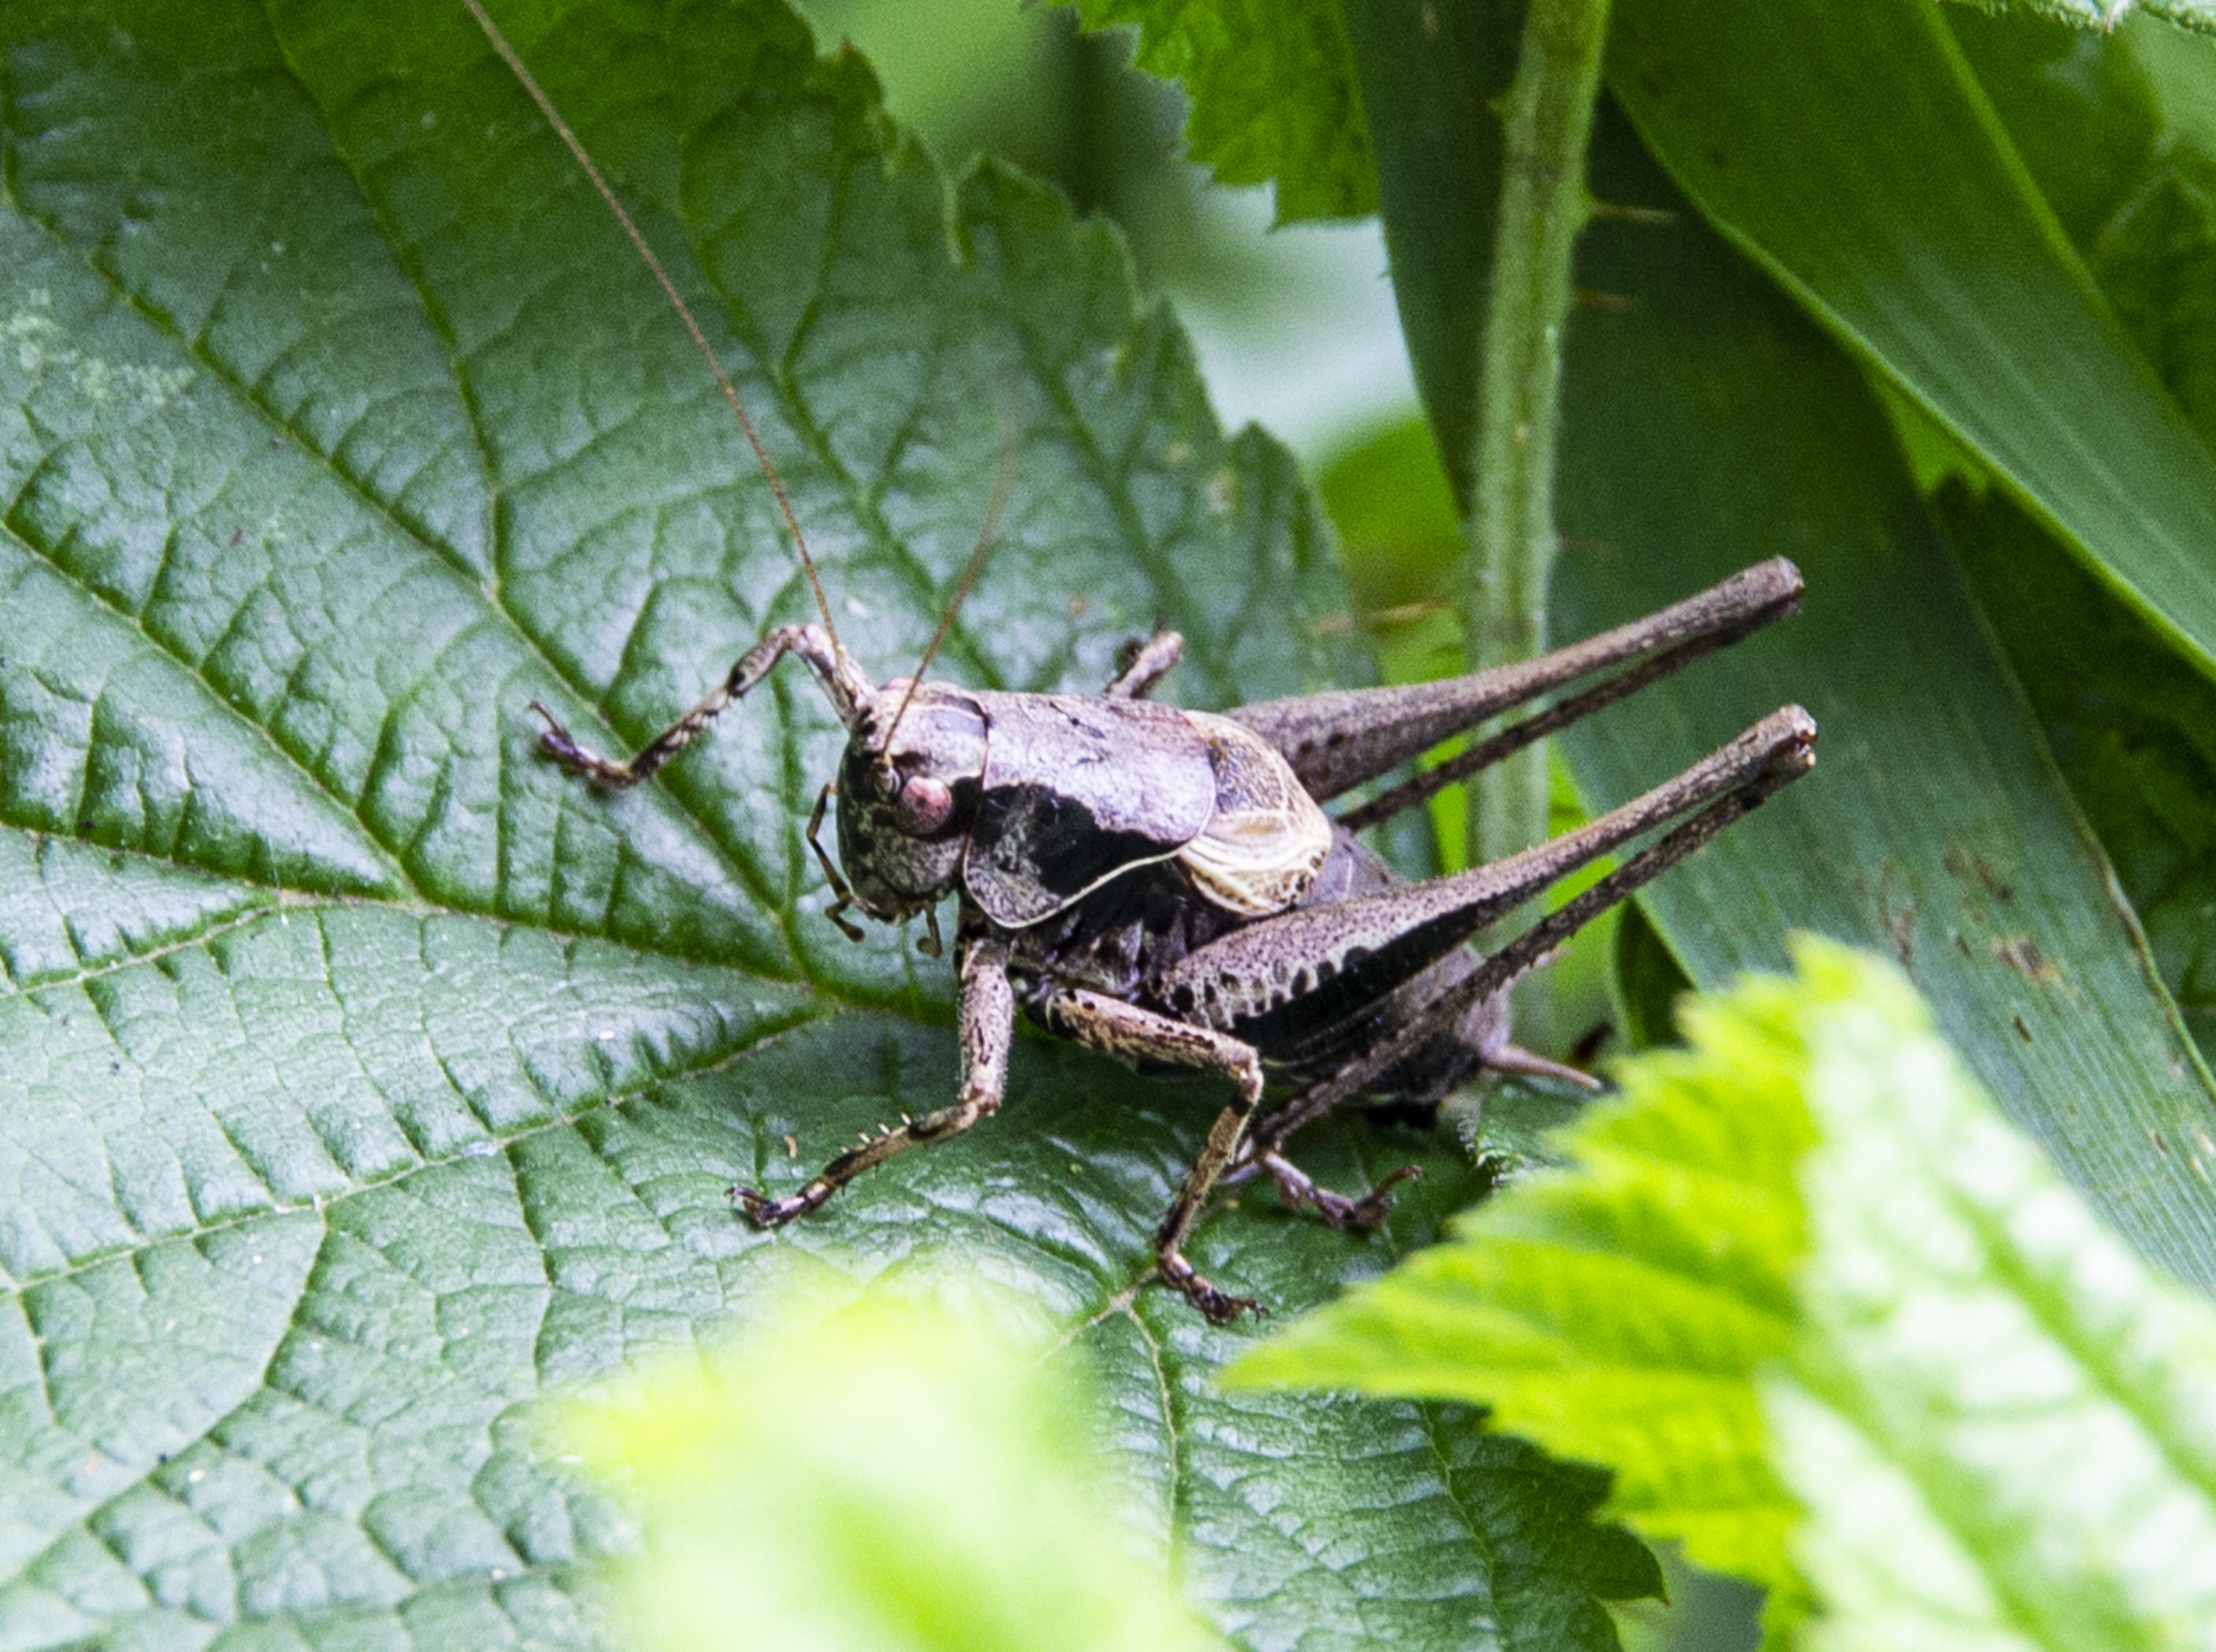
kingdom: Animalia
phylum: Arthropoda
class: Insecta
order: Orthoptera
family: Tettigoniidae
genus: Pholidoptera
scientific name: Pholidoptera griseoaptera
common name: Buskgræshoppe
